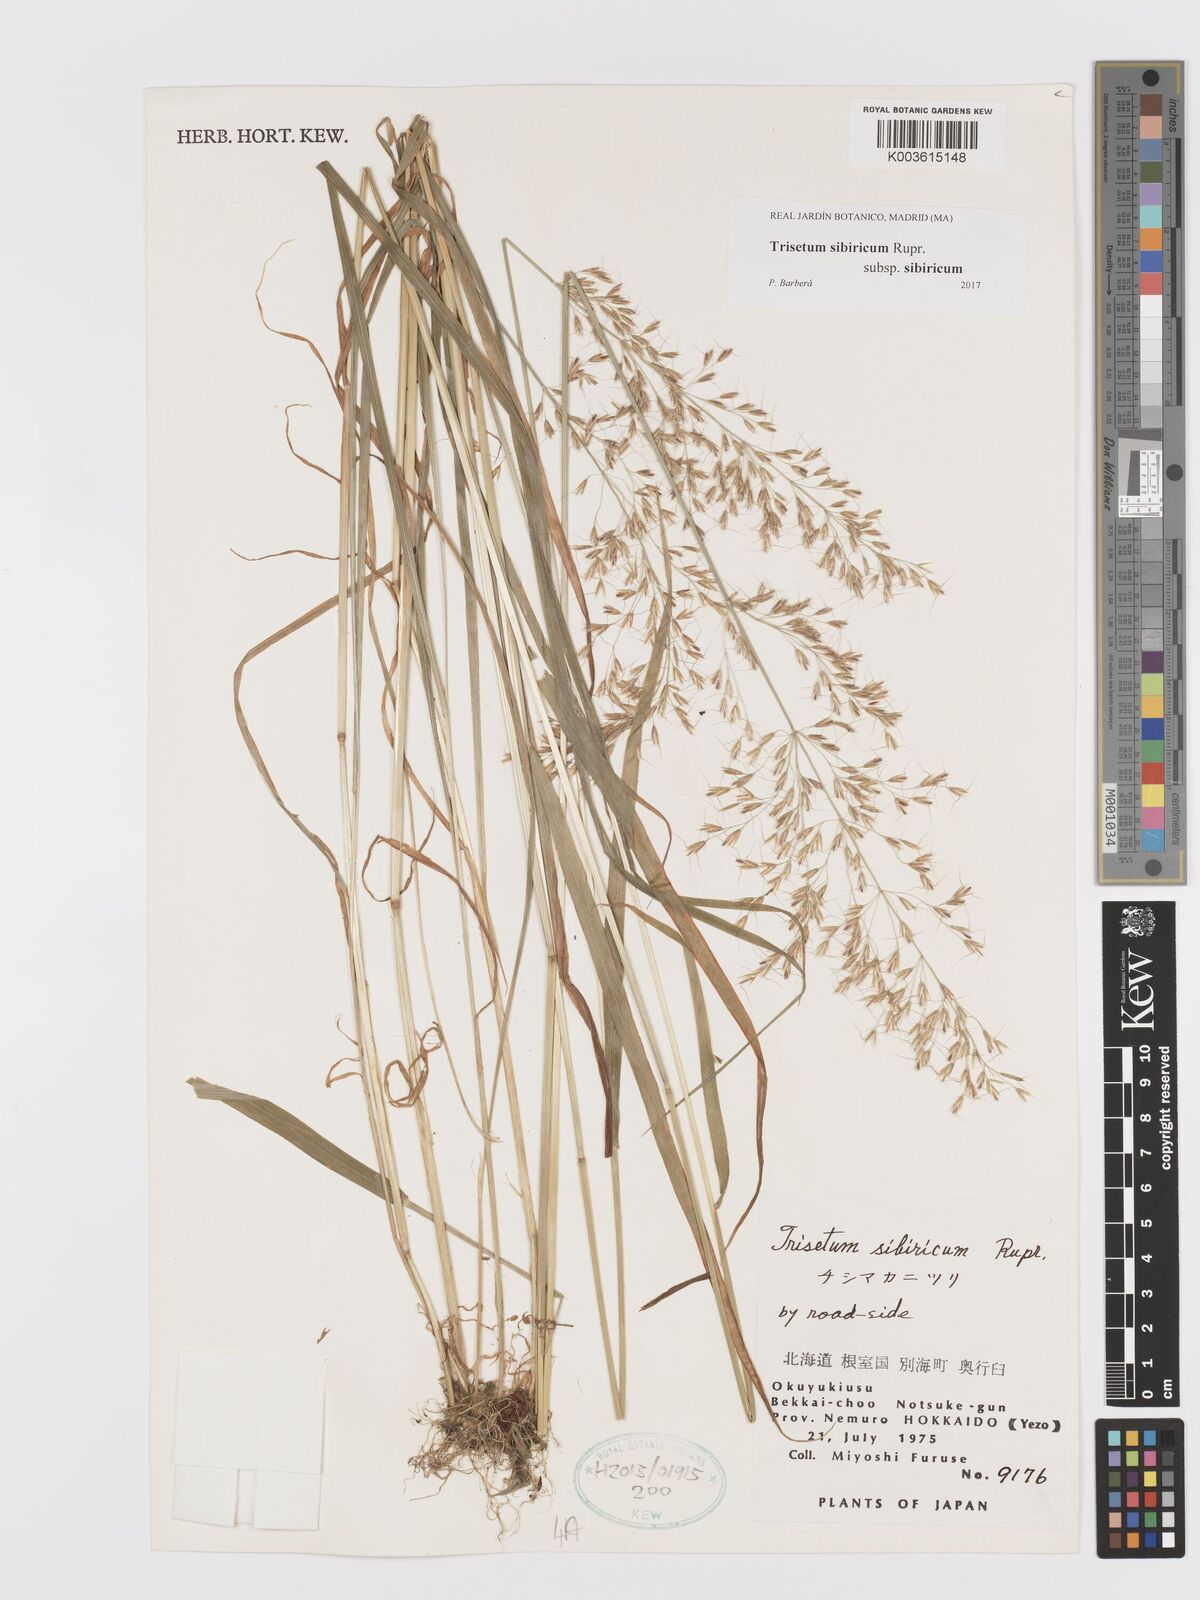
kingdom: Plantae
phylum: Tracheophyta
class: Liliopsida
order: Poales
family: Poaceae
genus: Sibirotrisetum
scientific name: Sibirotrisetum sibiricum
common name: Siberian false oat
